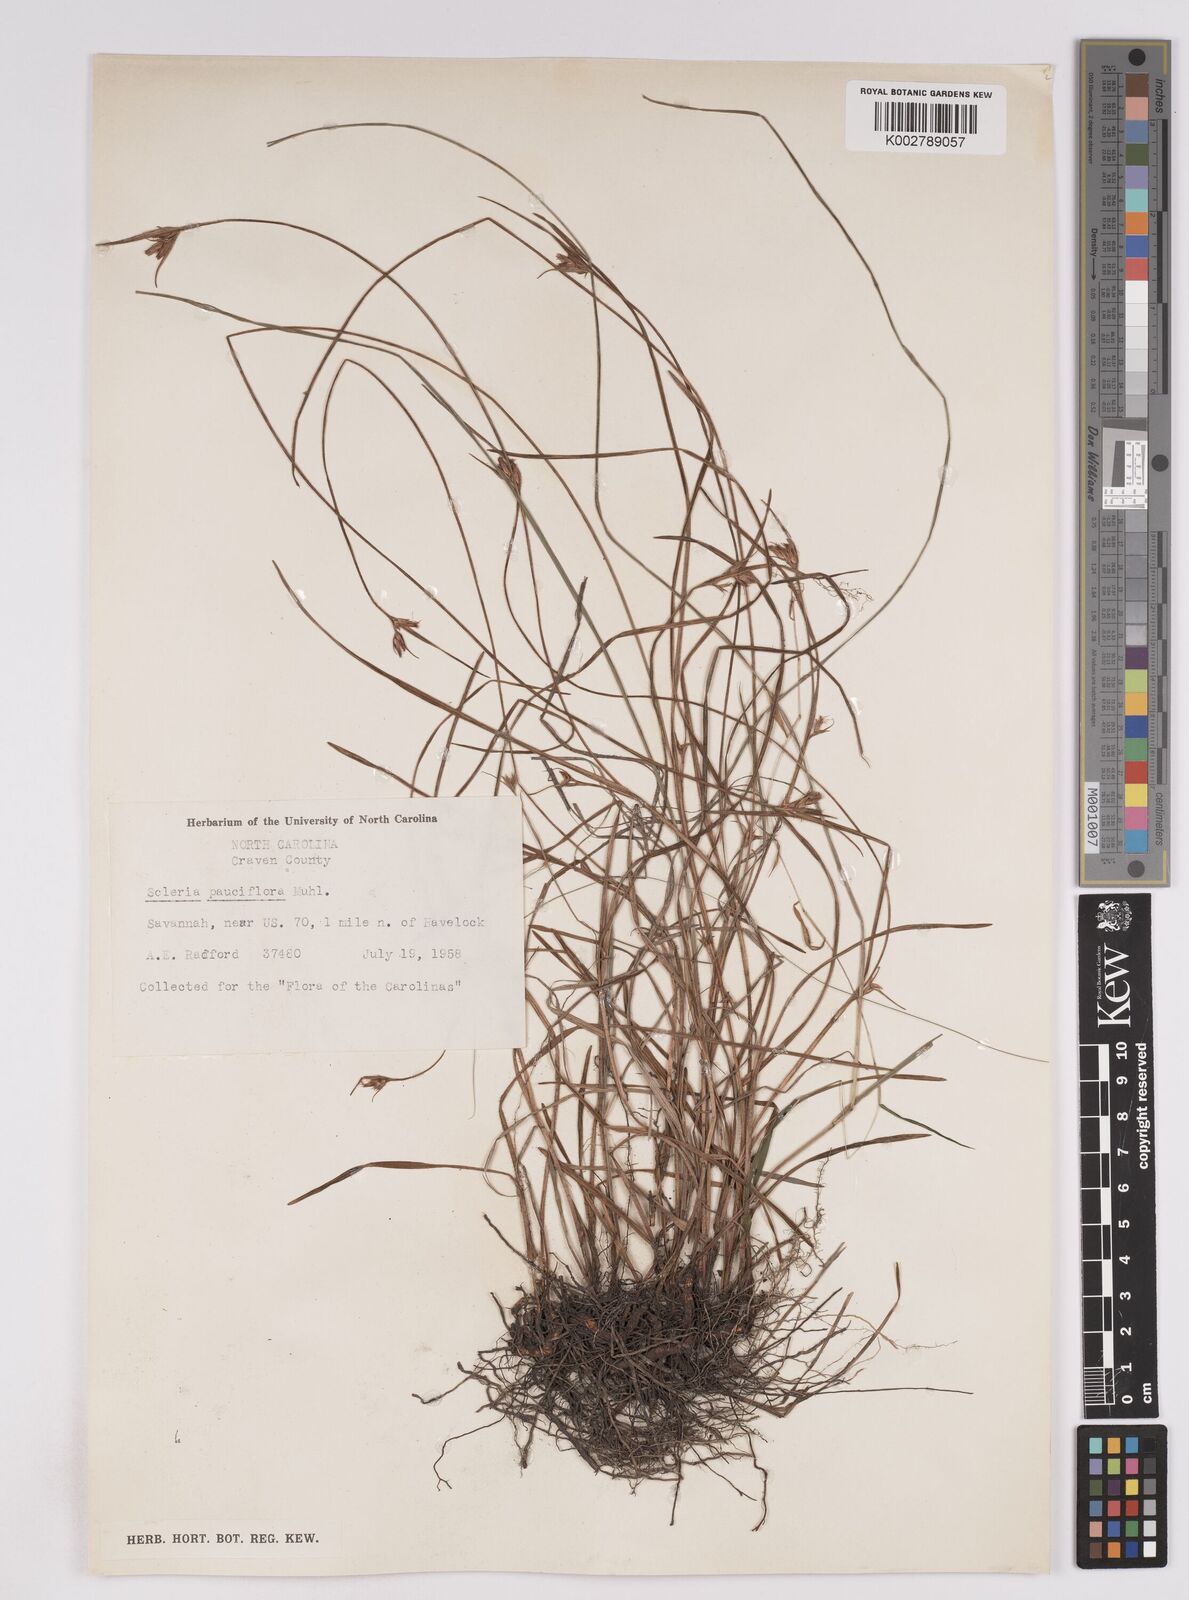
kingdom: Plantae
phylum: Tracheophyta
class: Liliopsida
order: Poales
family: Cyperaceae
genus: Scleria
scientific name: Scleria ciliata
